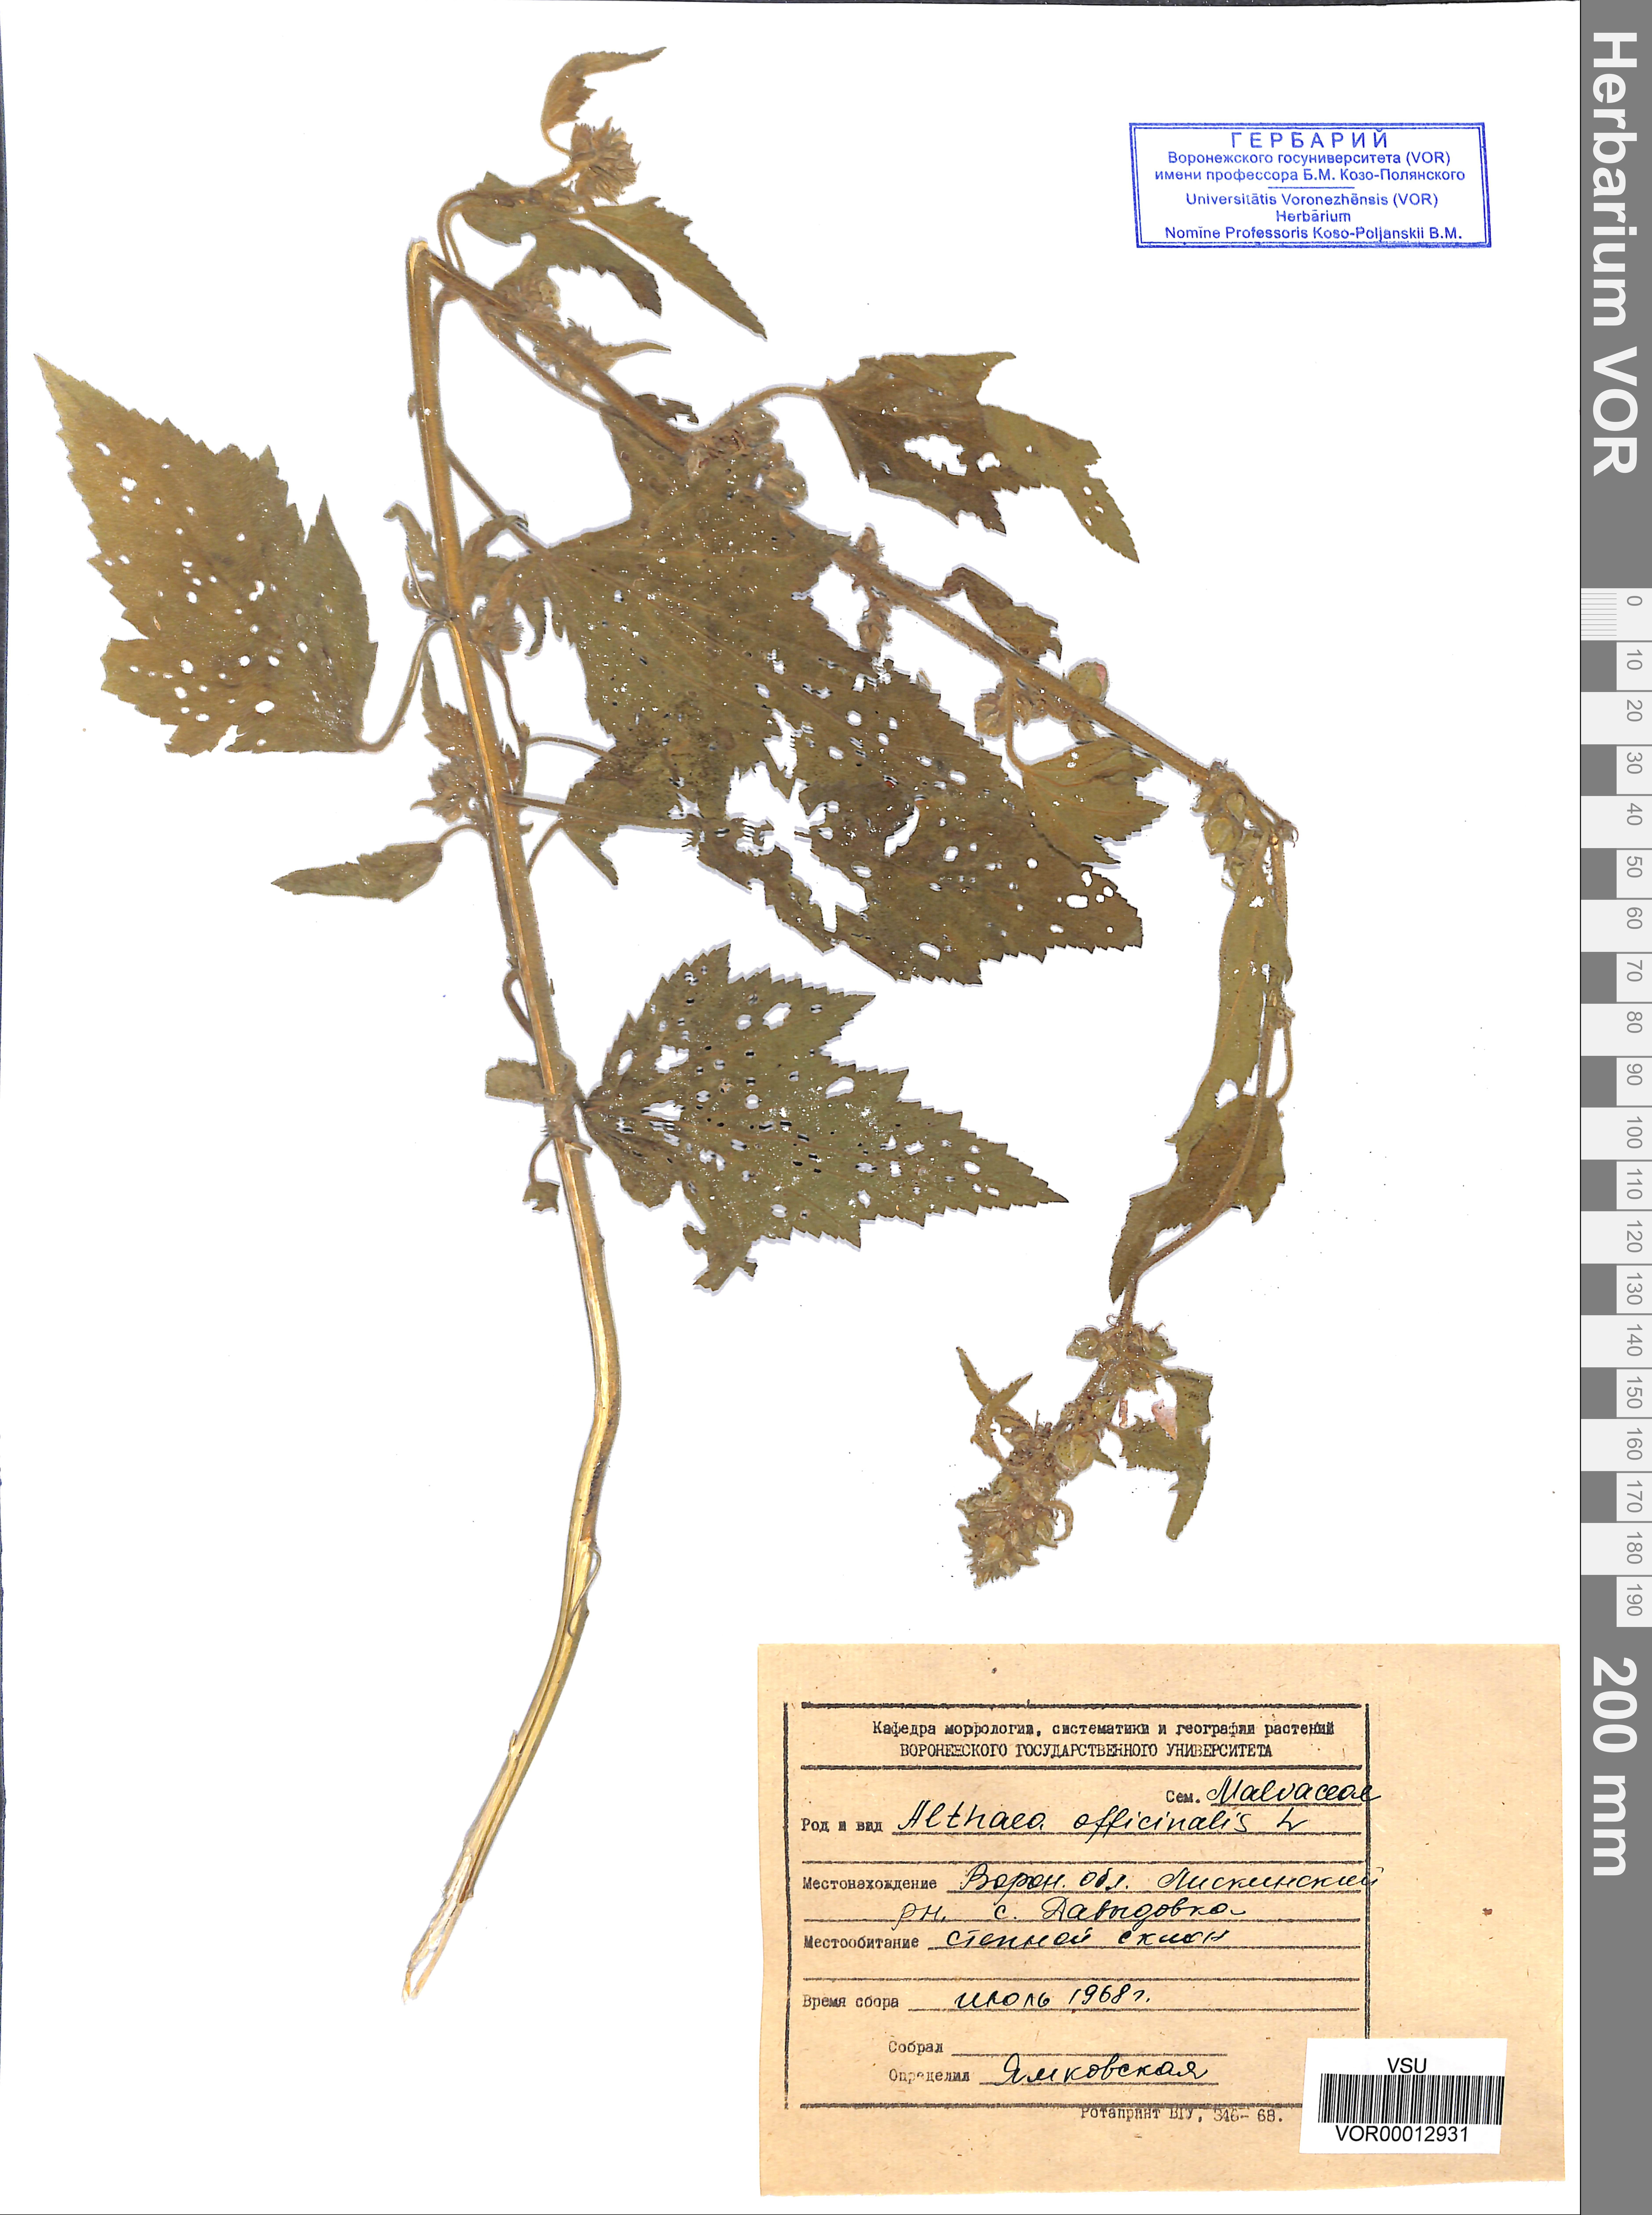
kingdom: Plantae
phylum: Tracheophyta
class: Magnoliopsida
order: Malvales
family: Malvaceae
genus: Althaea
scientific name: Althaea officinalis
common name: Marsh-mallow
